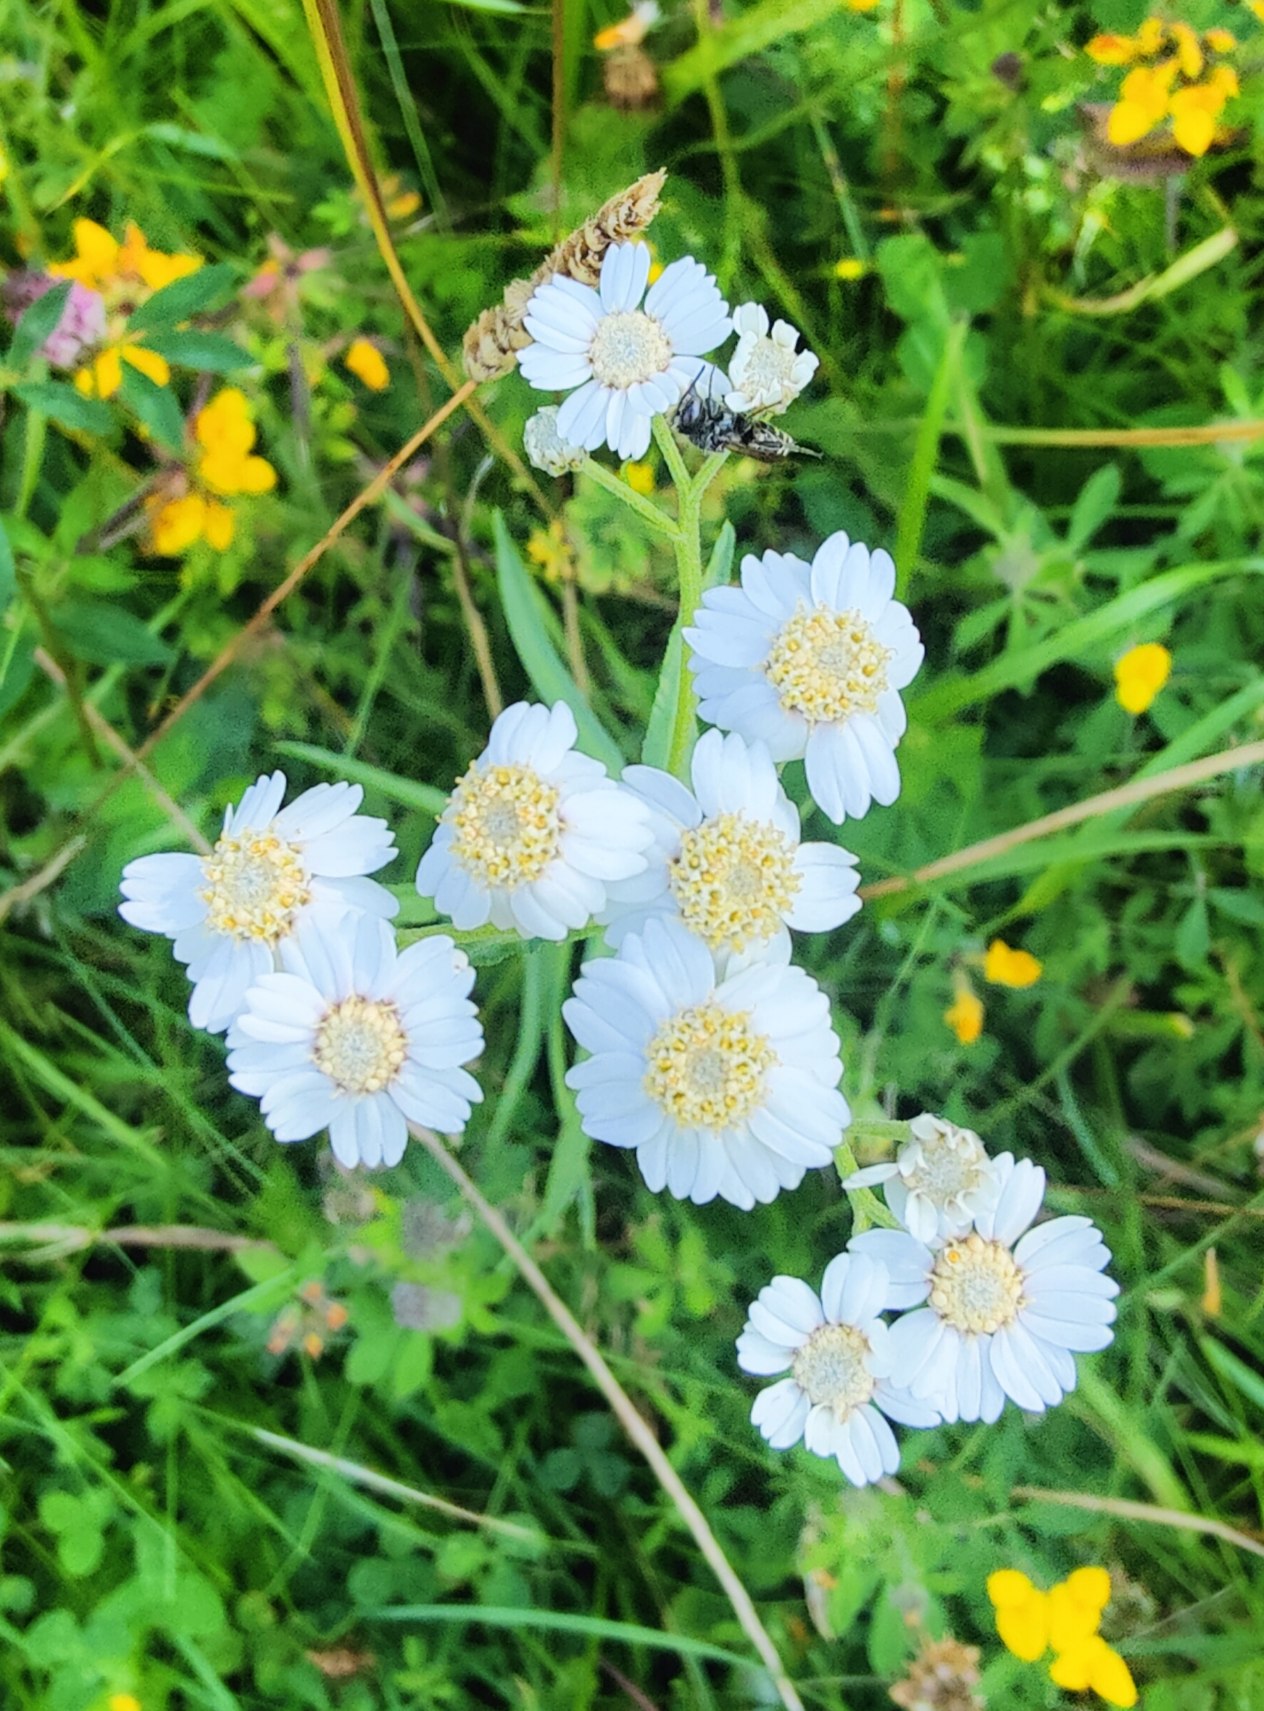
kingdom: Plantae
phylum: Tracheophyta
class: Magnoliopsida
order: Asterales
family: Asteraceae
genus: Achillea
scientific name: Achillea ptarmica
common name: Nyse-røllike
